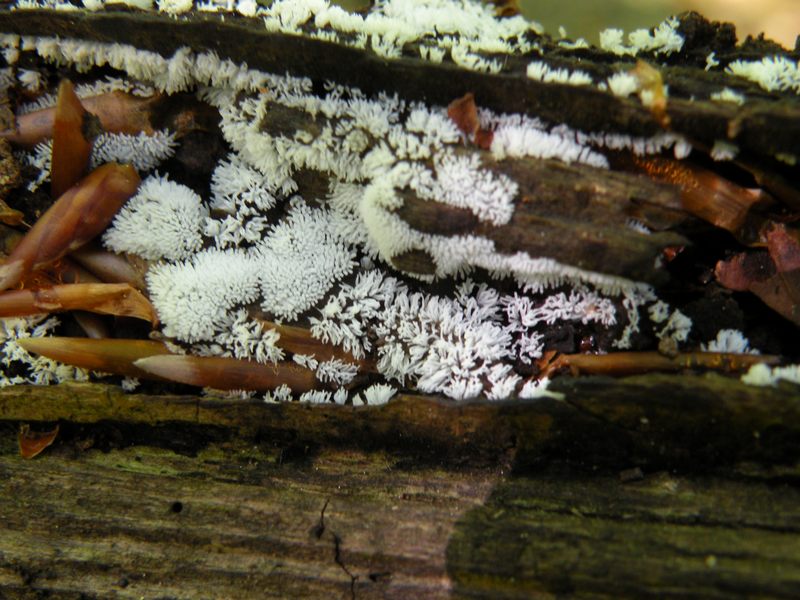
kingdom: Protozoa
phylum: Mycetozoa
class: Protosteliomycetes
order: Ceratiomyxales
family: Ceratiomyxaceae
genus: Ceratiomyxa
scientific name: Ceratiomyxa fruticulosa
